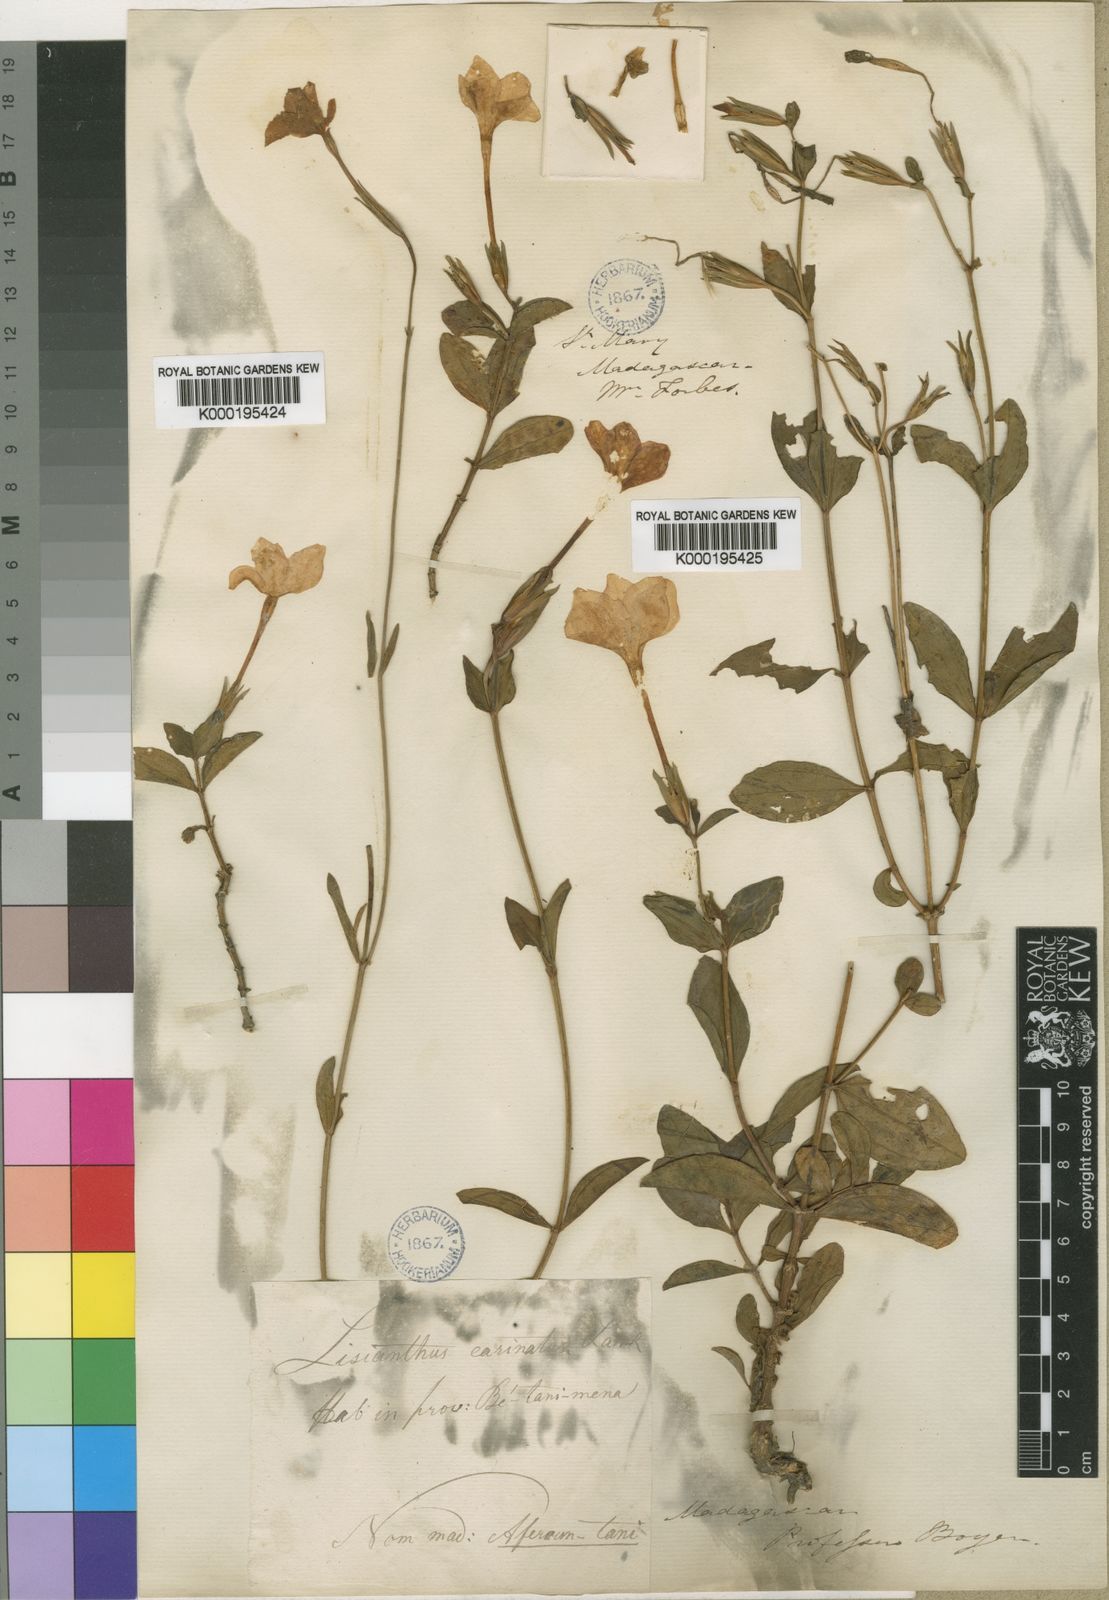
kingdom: Plantae
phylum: Tracheophyta
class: Magnoliopsida
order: Gentianales
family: Gentianaceae
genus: Tachiadenus
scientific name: Tachiadenus carinatus
